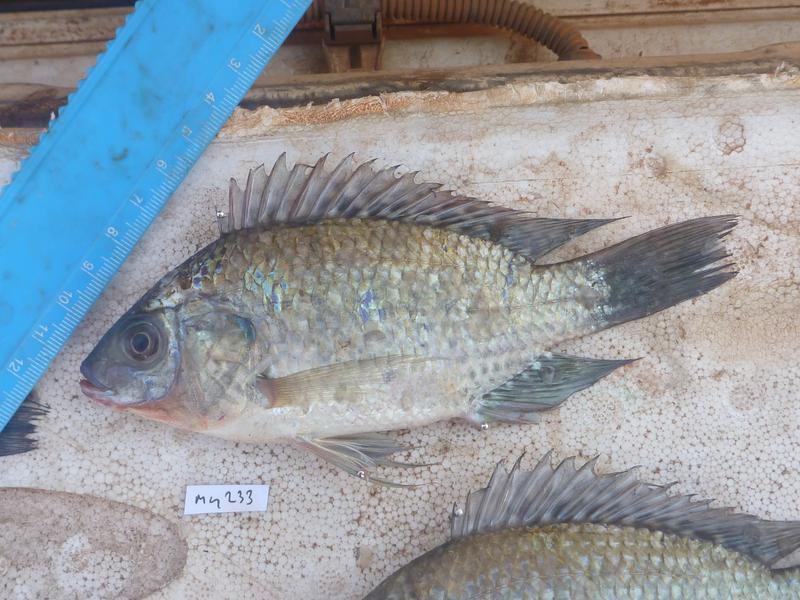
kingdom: Animalia
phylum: Chordata
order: Perciformes
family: Cichlidae
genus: Oreochromis
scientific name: Oreochromis leucostictus
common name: Blue spotted tilapia
